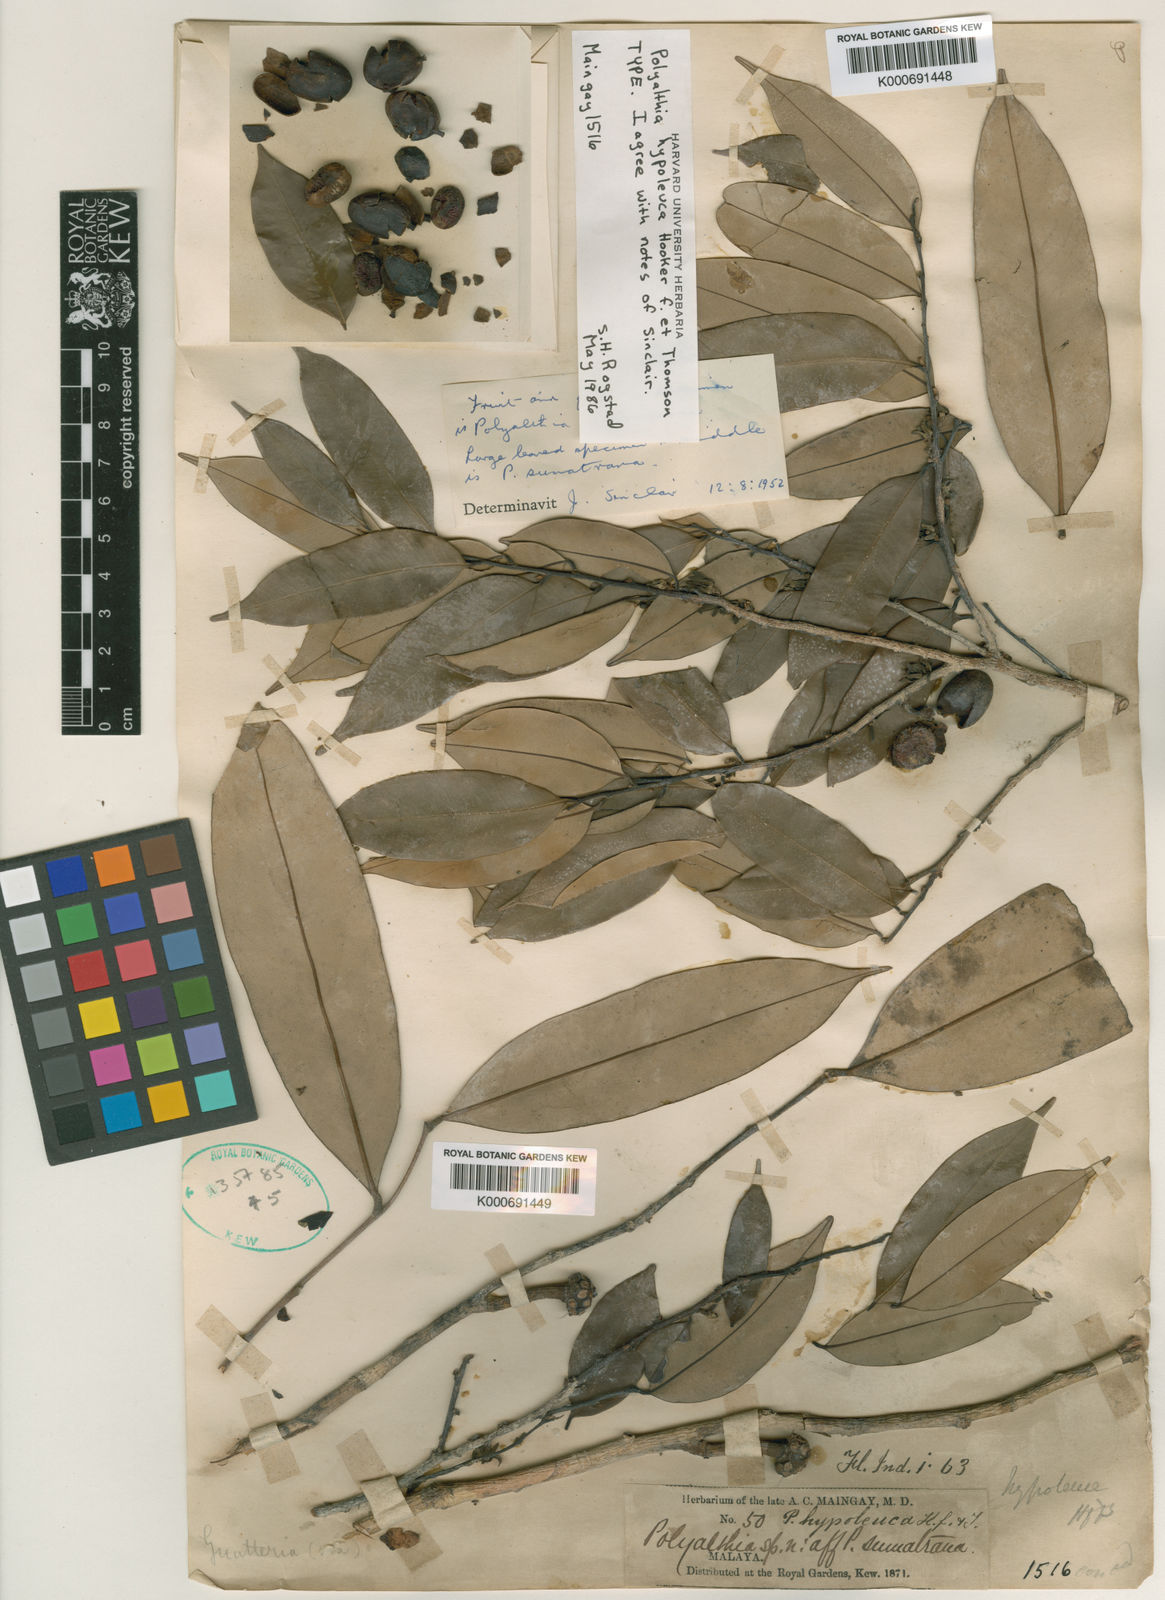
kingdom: Plantae
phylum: Tracheophyta
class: Magnoliopsida
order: Magnoliales
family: Annonaceae
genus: Maasia
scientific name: Maasia hypoleuca
